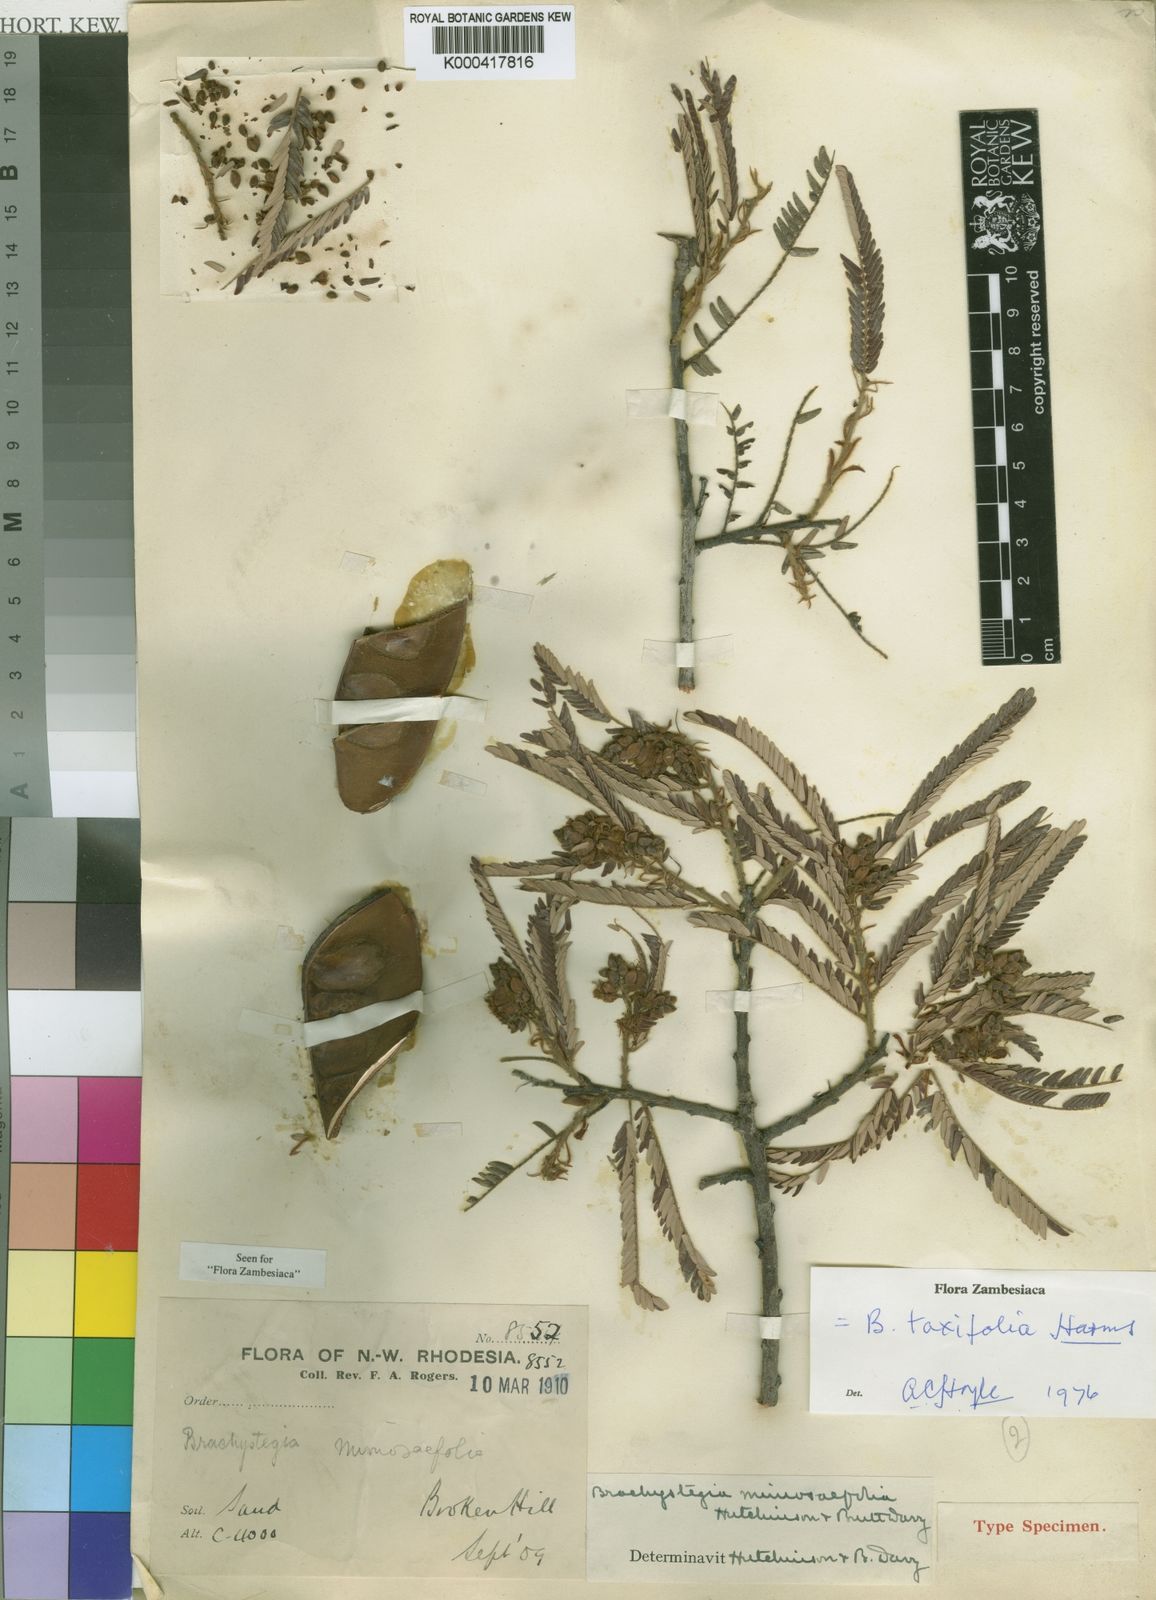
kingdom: Plantae
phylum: Tracheophyta
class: Magnoliopsida
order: Fabales
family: Fabaceae
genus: Brachystegia
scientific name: Brachystegia taxifolia
